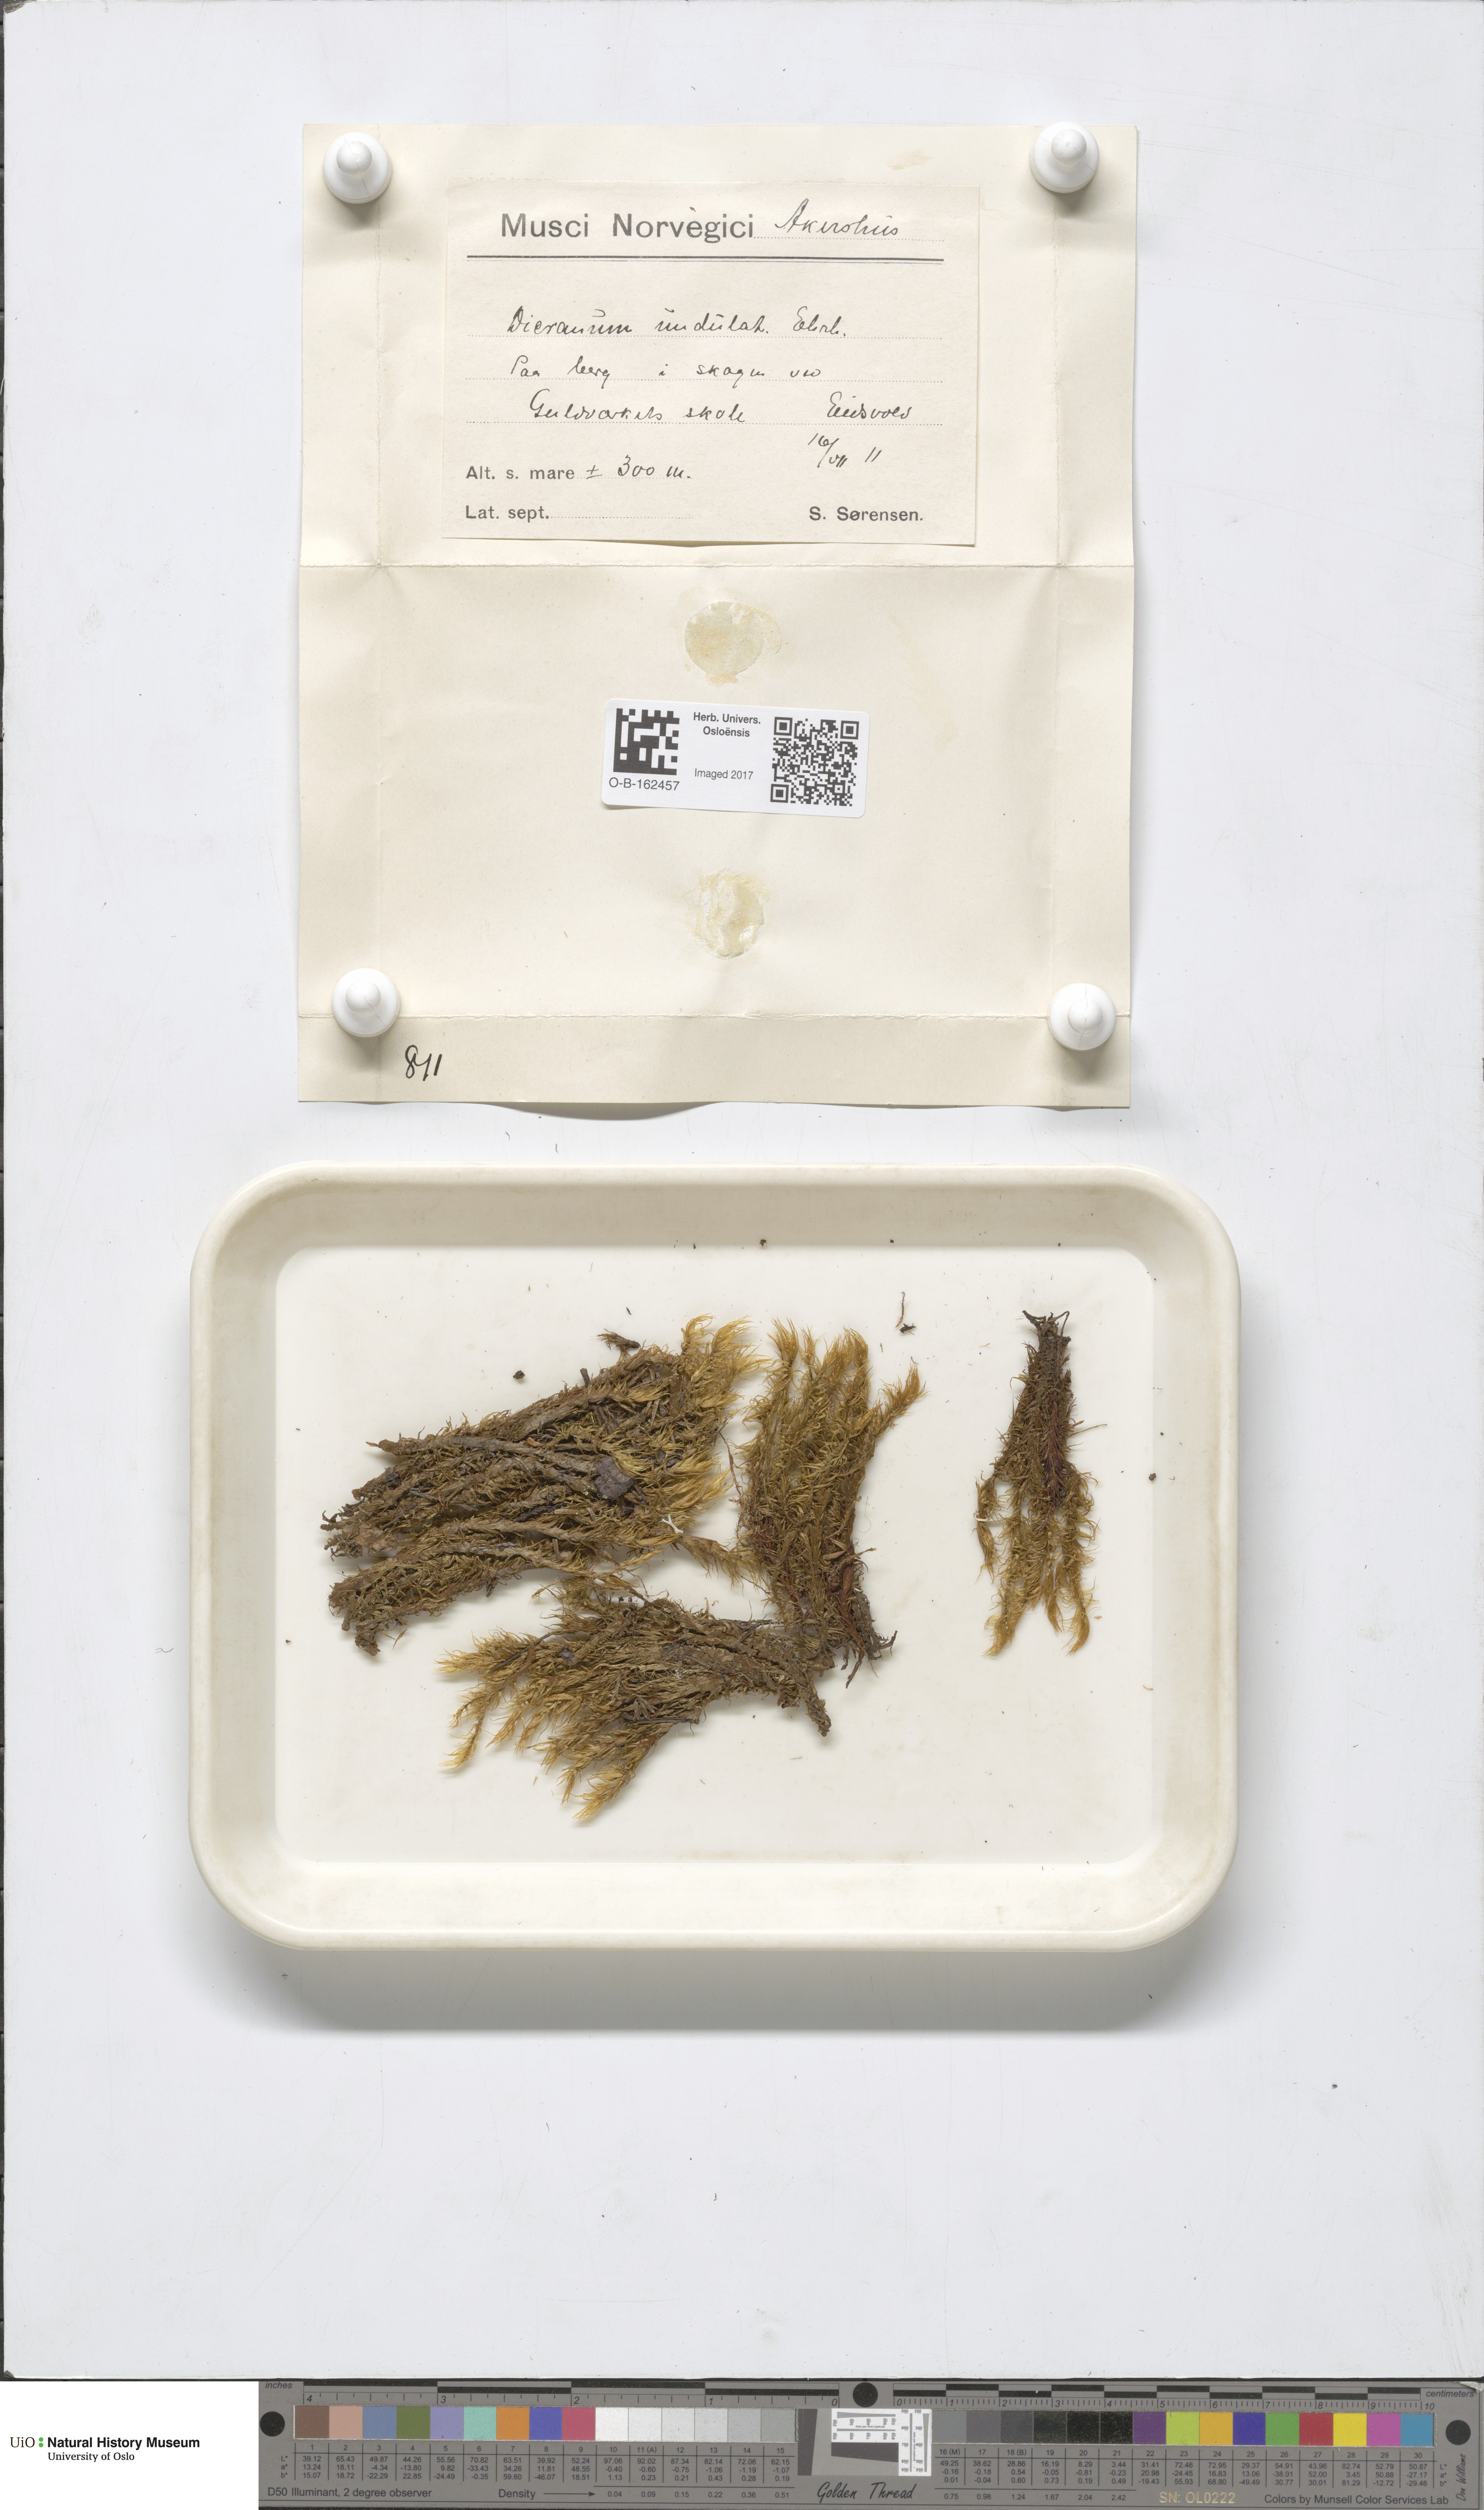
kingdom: Plantae
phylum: Bryophyta
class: Bryopsida
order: Dicranales
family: Dicranaceae
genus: Dicranum
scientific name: Dicranum polysetum
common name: Rugose fork-moss
